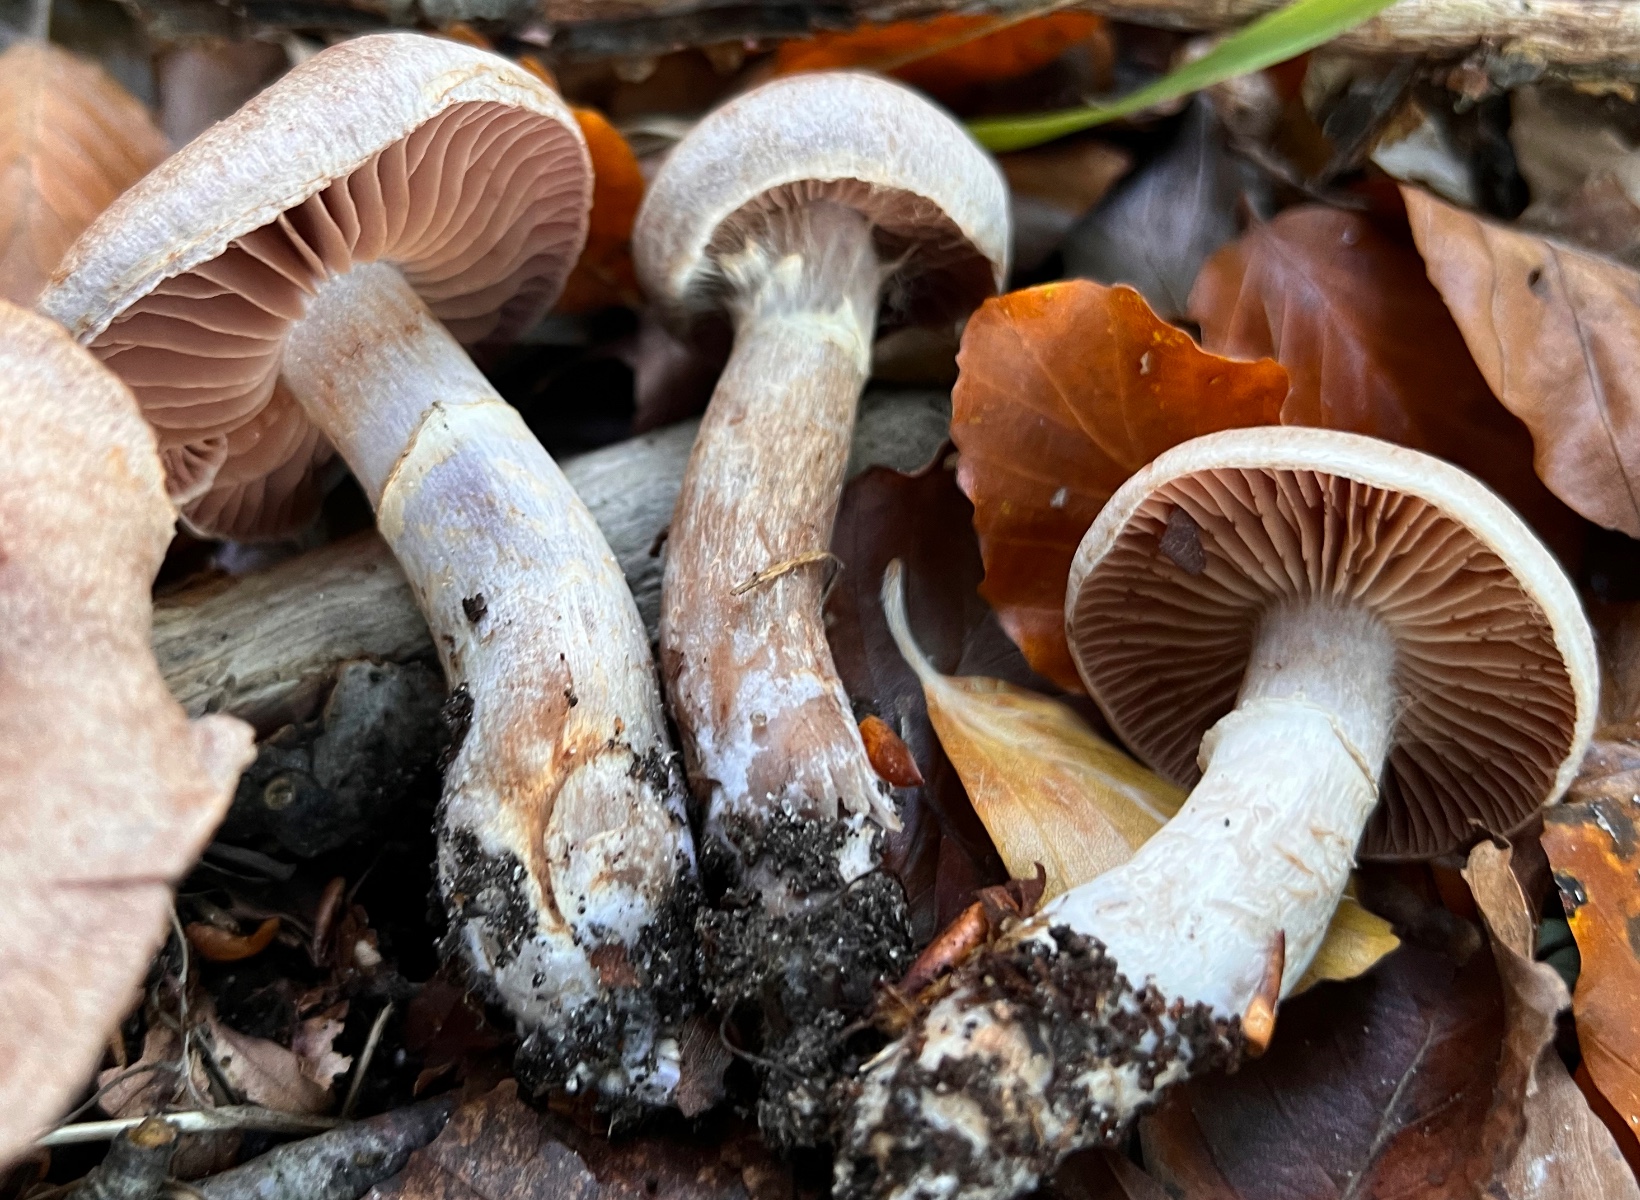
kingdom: Fungi
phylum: Basidiomycota
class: Agaricomycetes
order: Agaricales
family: Cortinariaceae
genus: Cortinarius
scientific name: Cortinarius torvus
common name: champignonagtig slørhat
